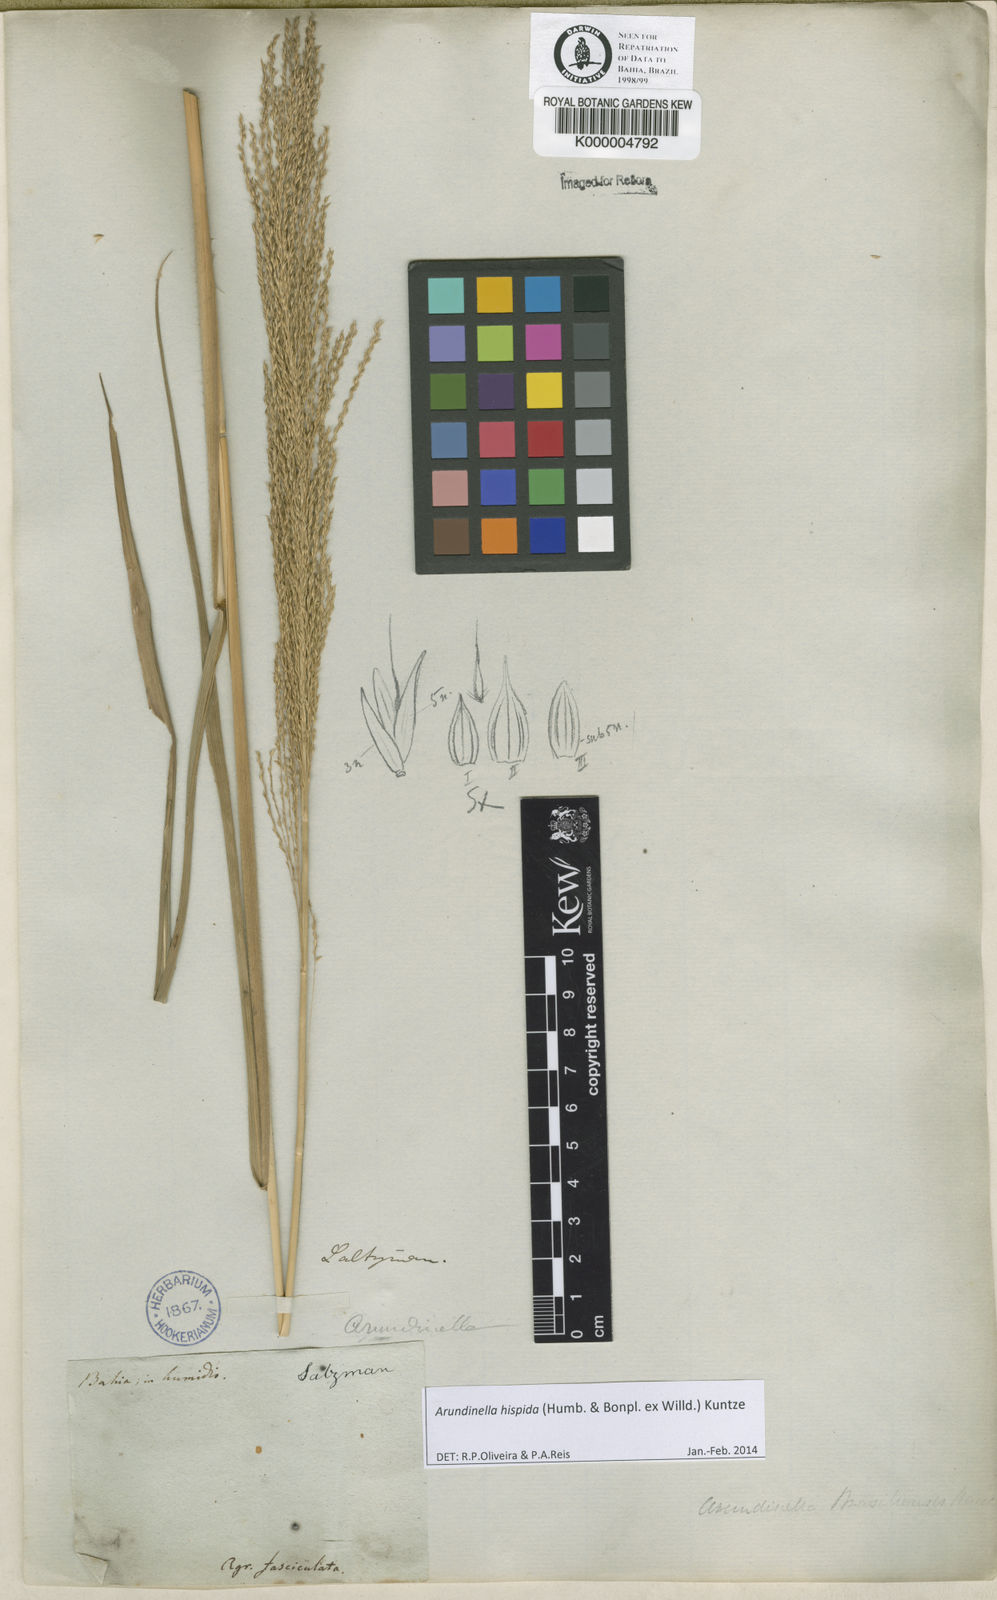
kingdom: Plantae
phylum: Tracheophyta
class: Liliopsida
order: Poales
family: Poaceae
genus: Arundinella
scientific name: Arundinella hispida
